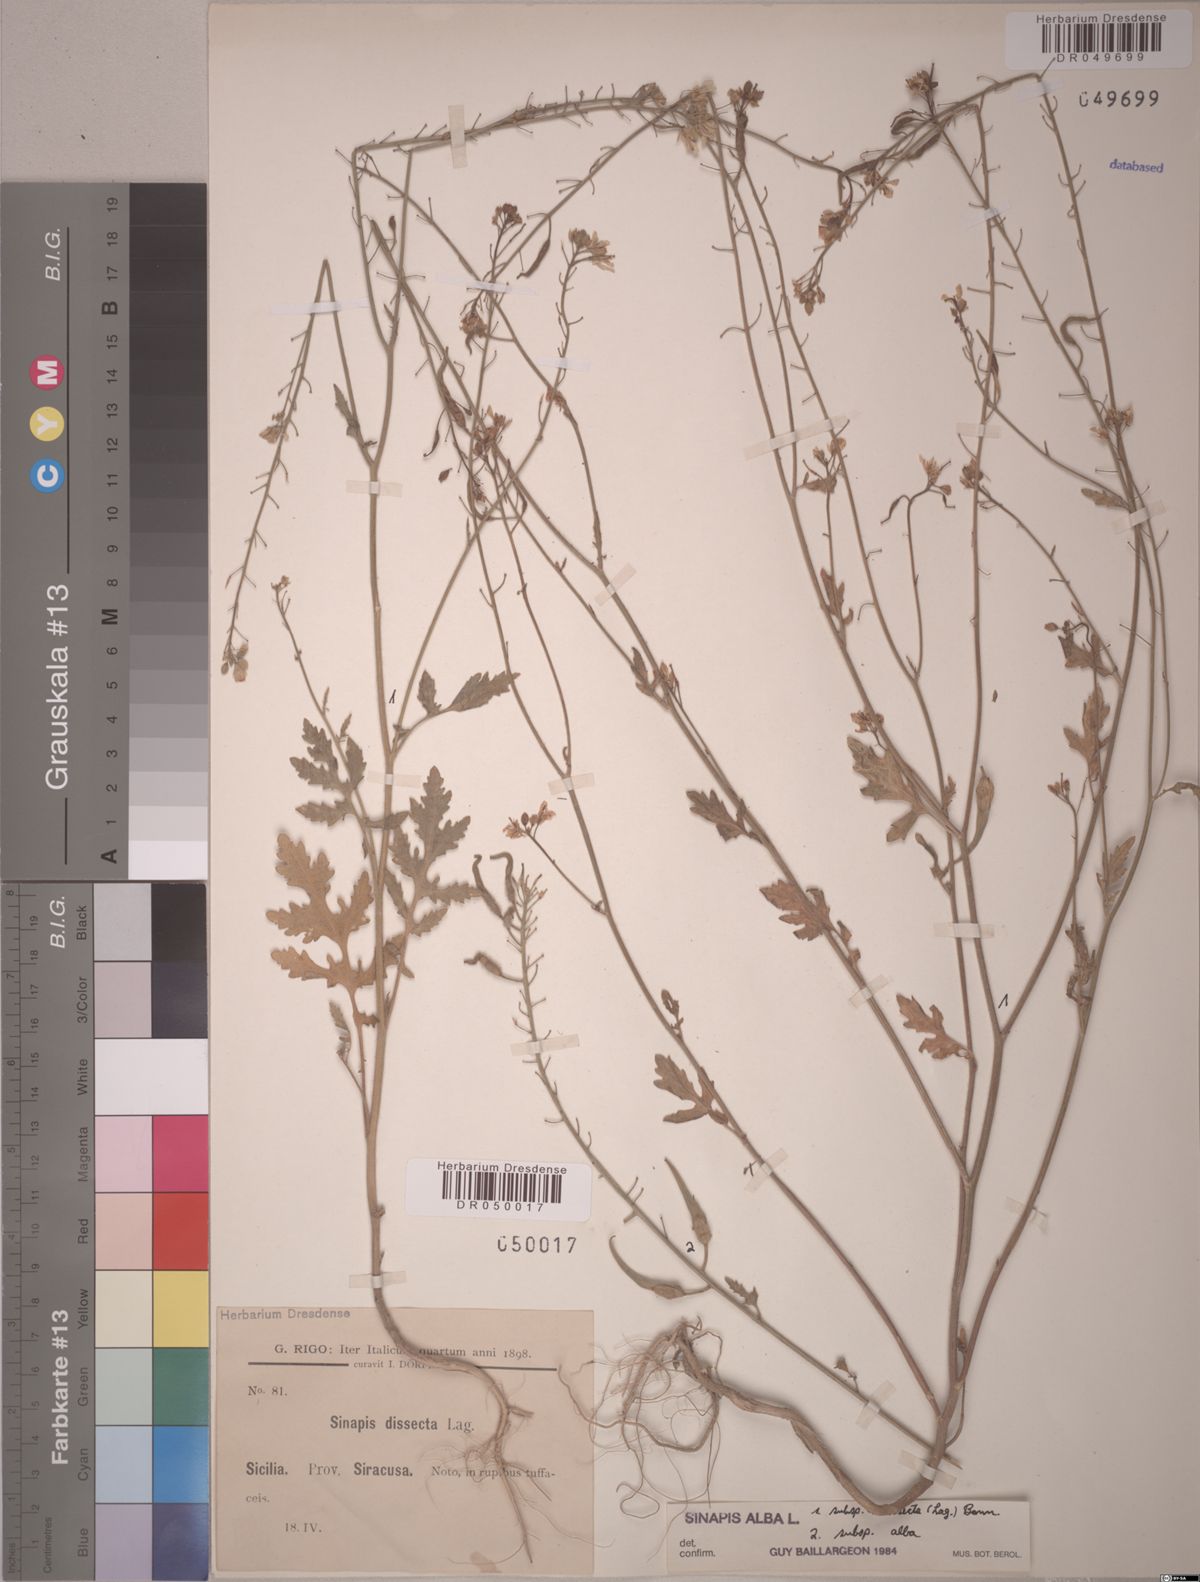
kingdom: Plantae
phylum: Tracheophyta
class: Magnoliopsida
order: Brassicales
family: Brassicaceae
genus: Sinapis
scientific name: Sinapis alba
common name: White mustard
